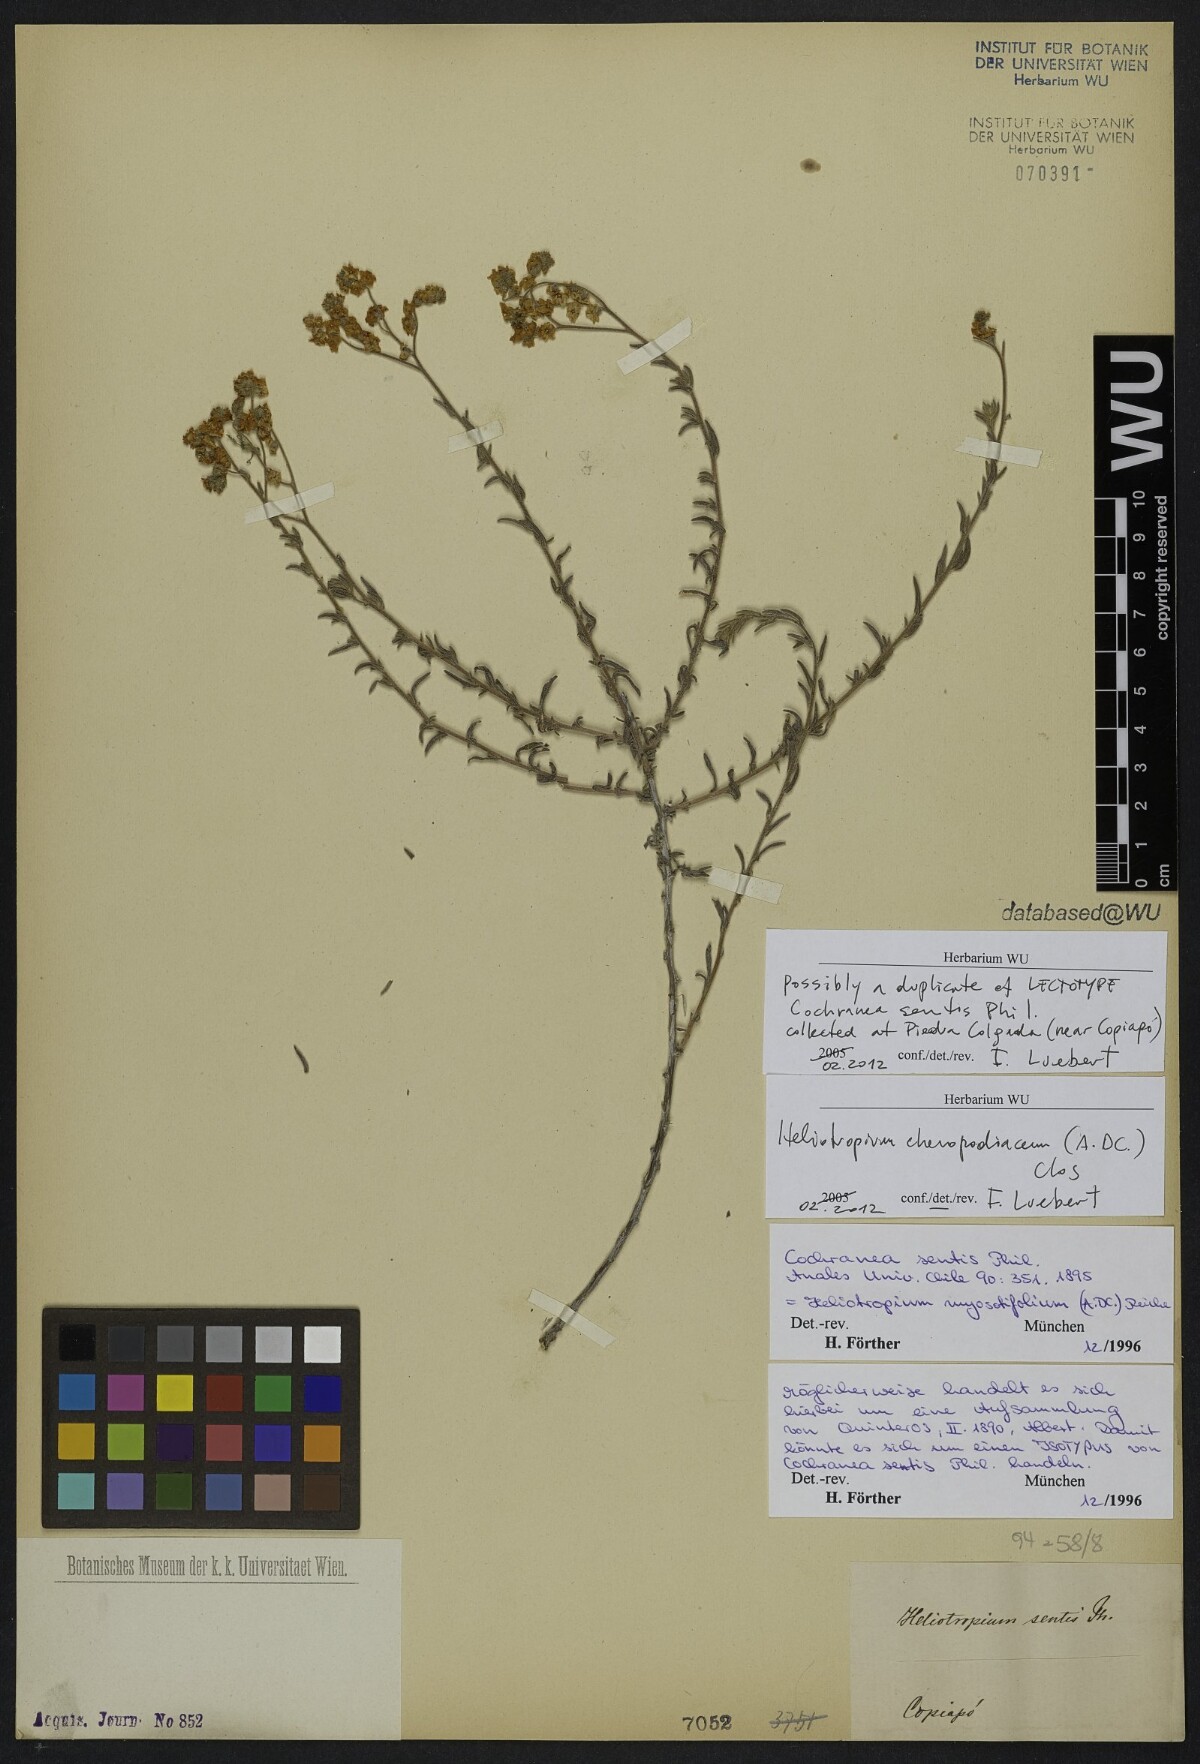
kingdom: Plantae
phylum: Tracheophyta
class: Magnoliopsida
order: Boraginales
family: Heliotropiaceae
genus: Heliotropium
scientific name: Heliotropium chenopodiaceum
